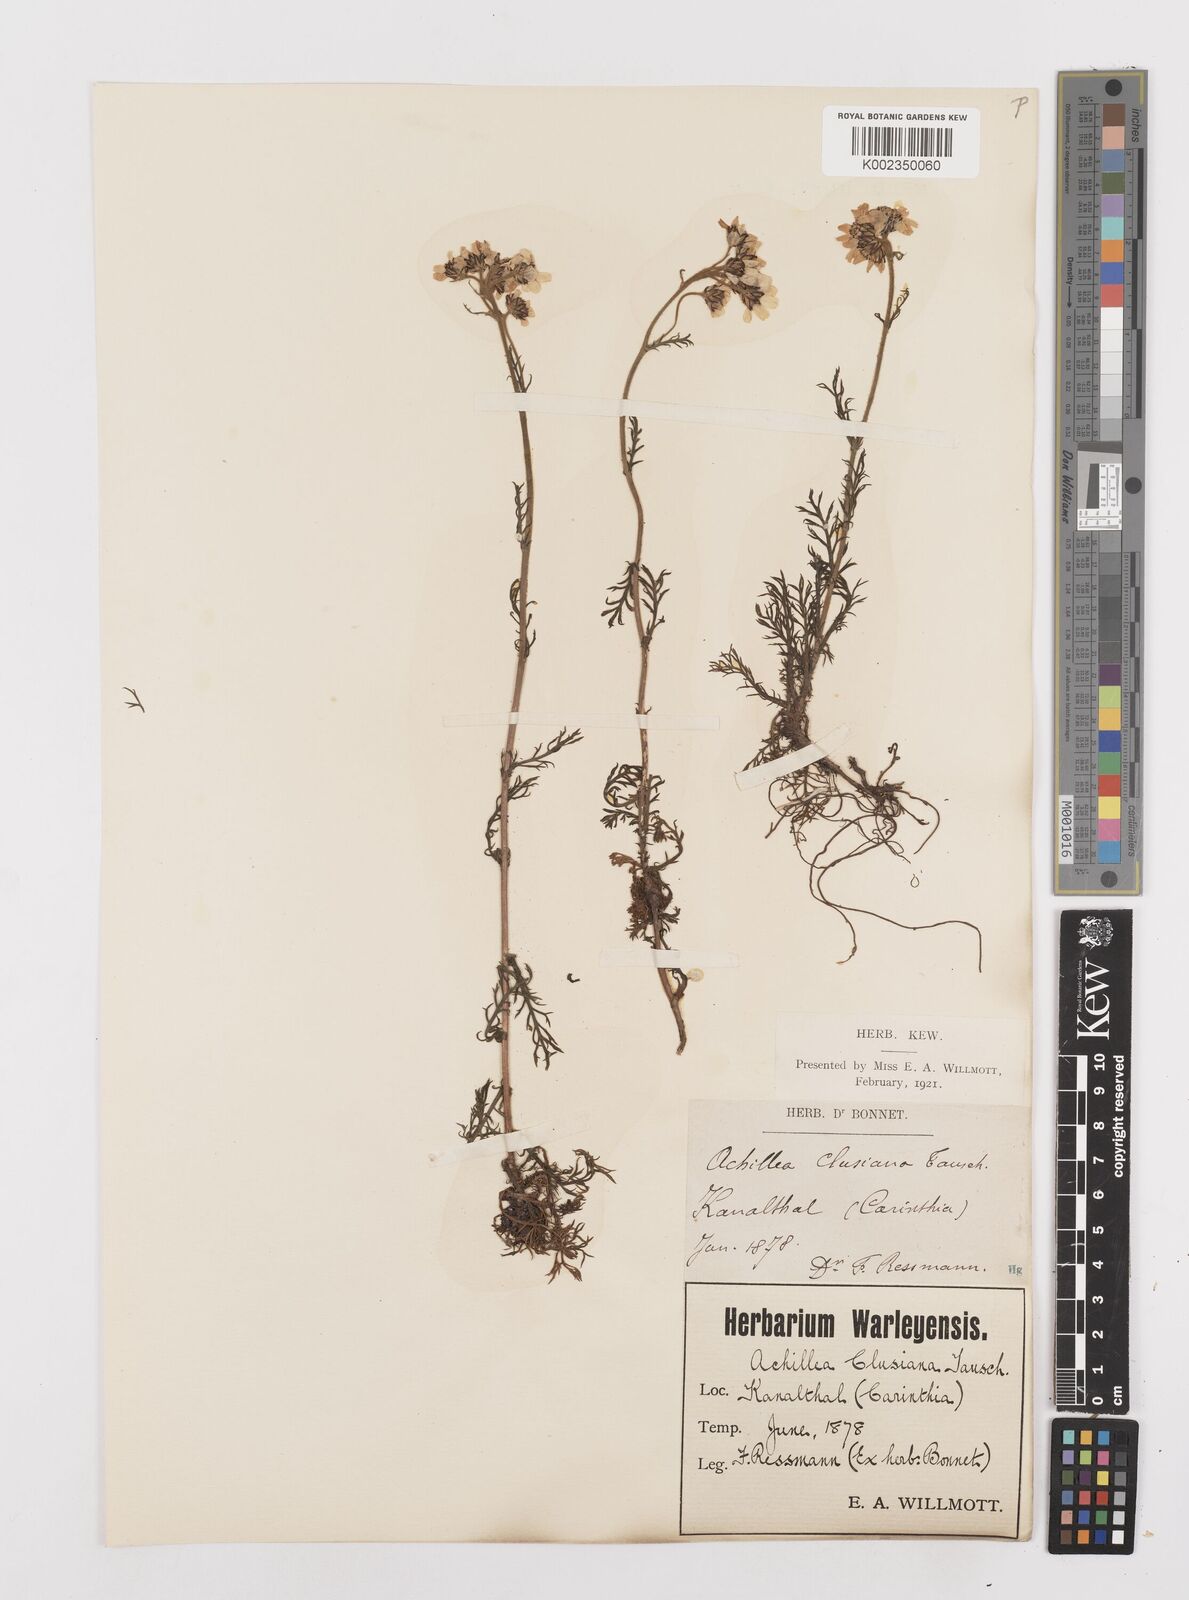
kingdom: Plantae
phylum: Tracheophyta
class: Magnoliopsida
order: Asterales
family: Asteraceae
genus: Achillea
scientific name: Achillea atrata
